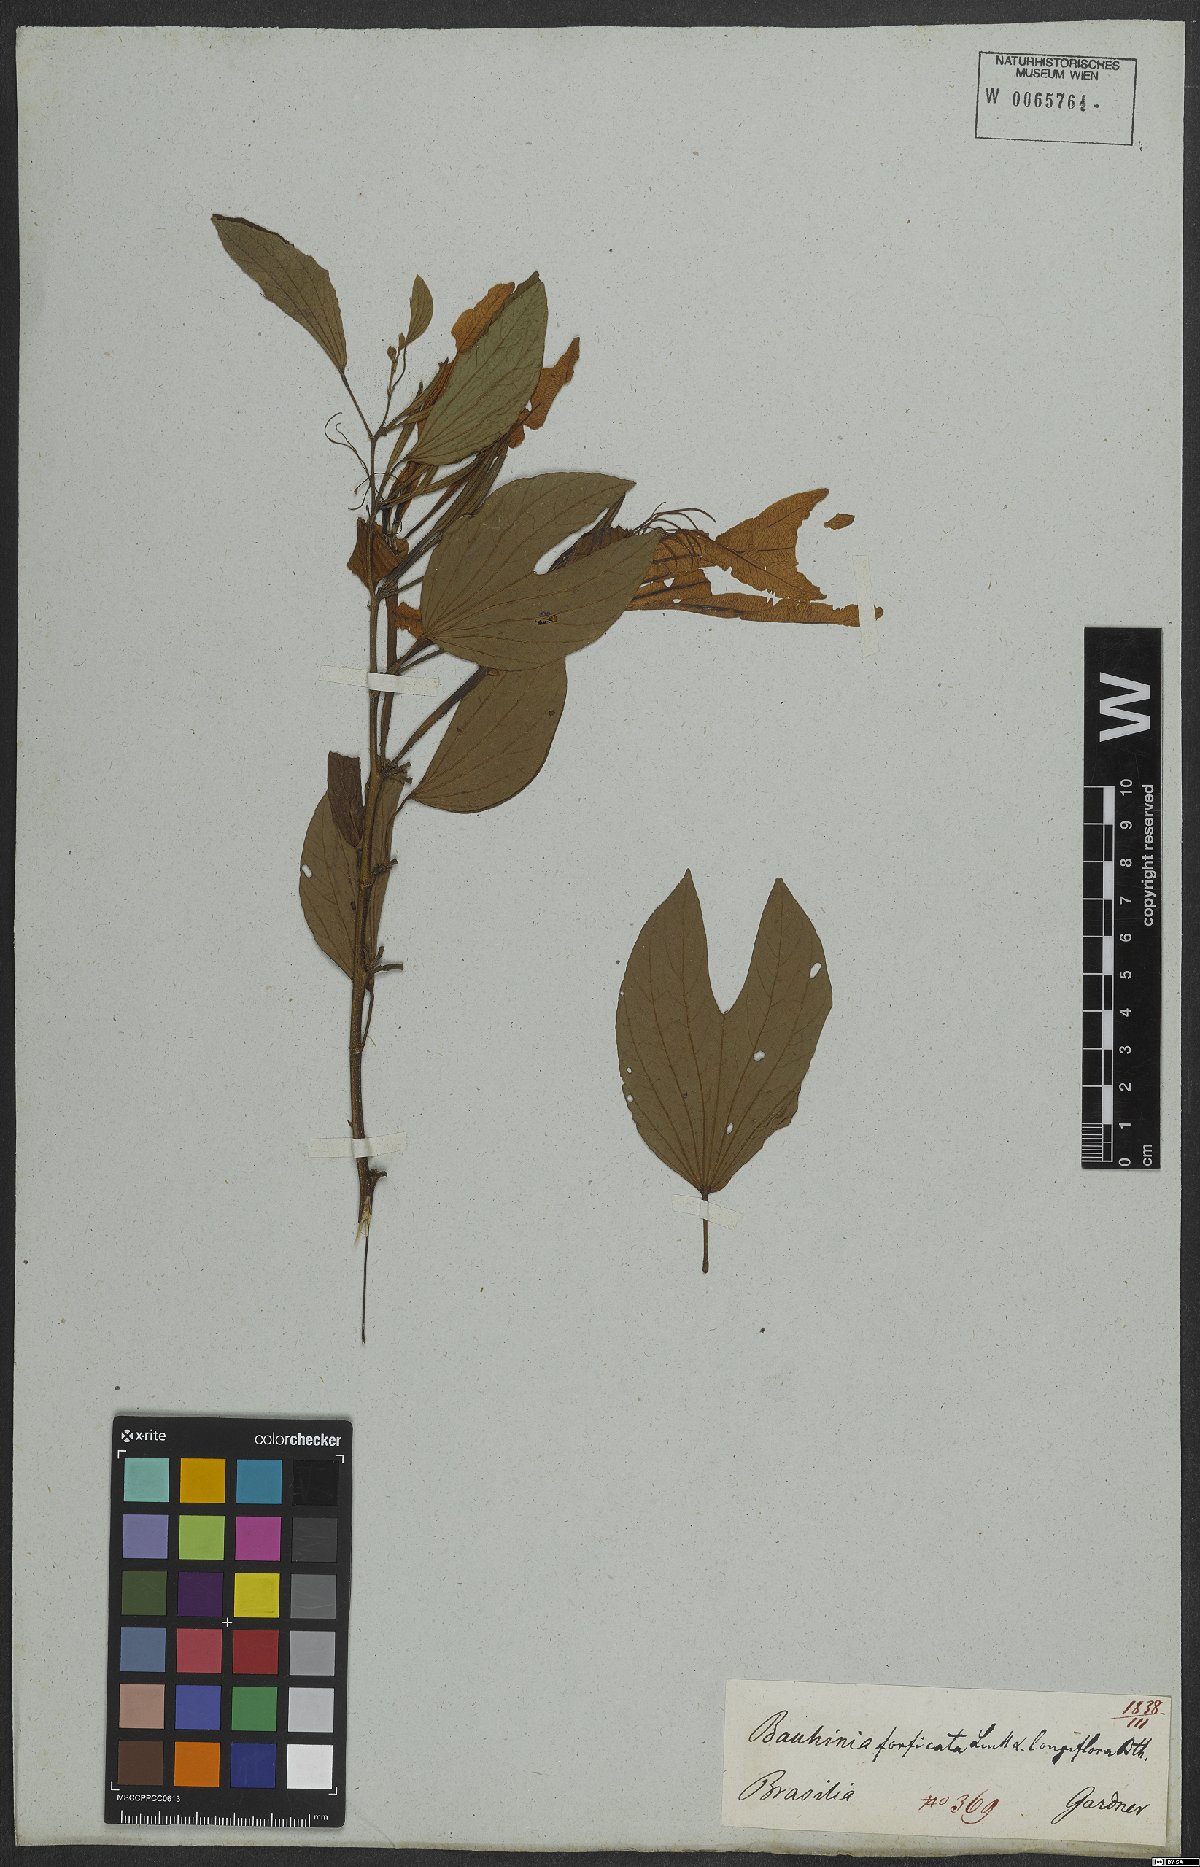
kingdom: Plantae
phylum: Tracheophyta
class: Magnoliopsida
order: Fabales
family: Fabaceae
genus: Bauhinia
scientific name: Bauhinia forficata
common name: Orchid tree
